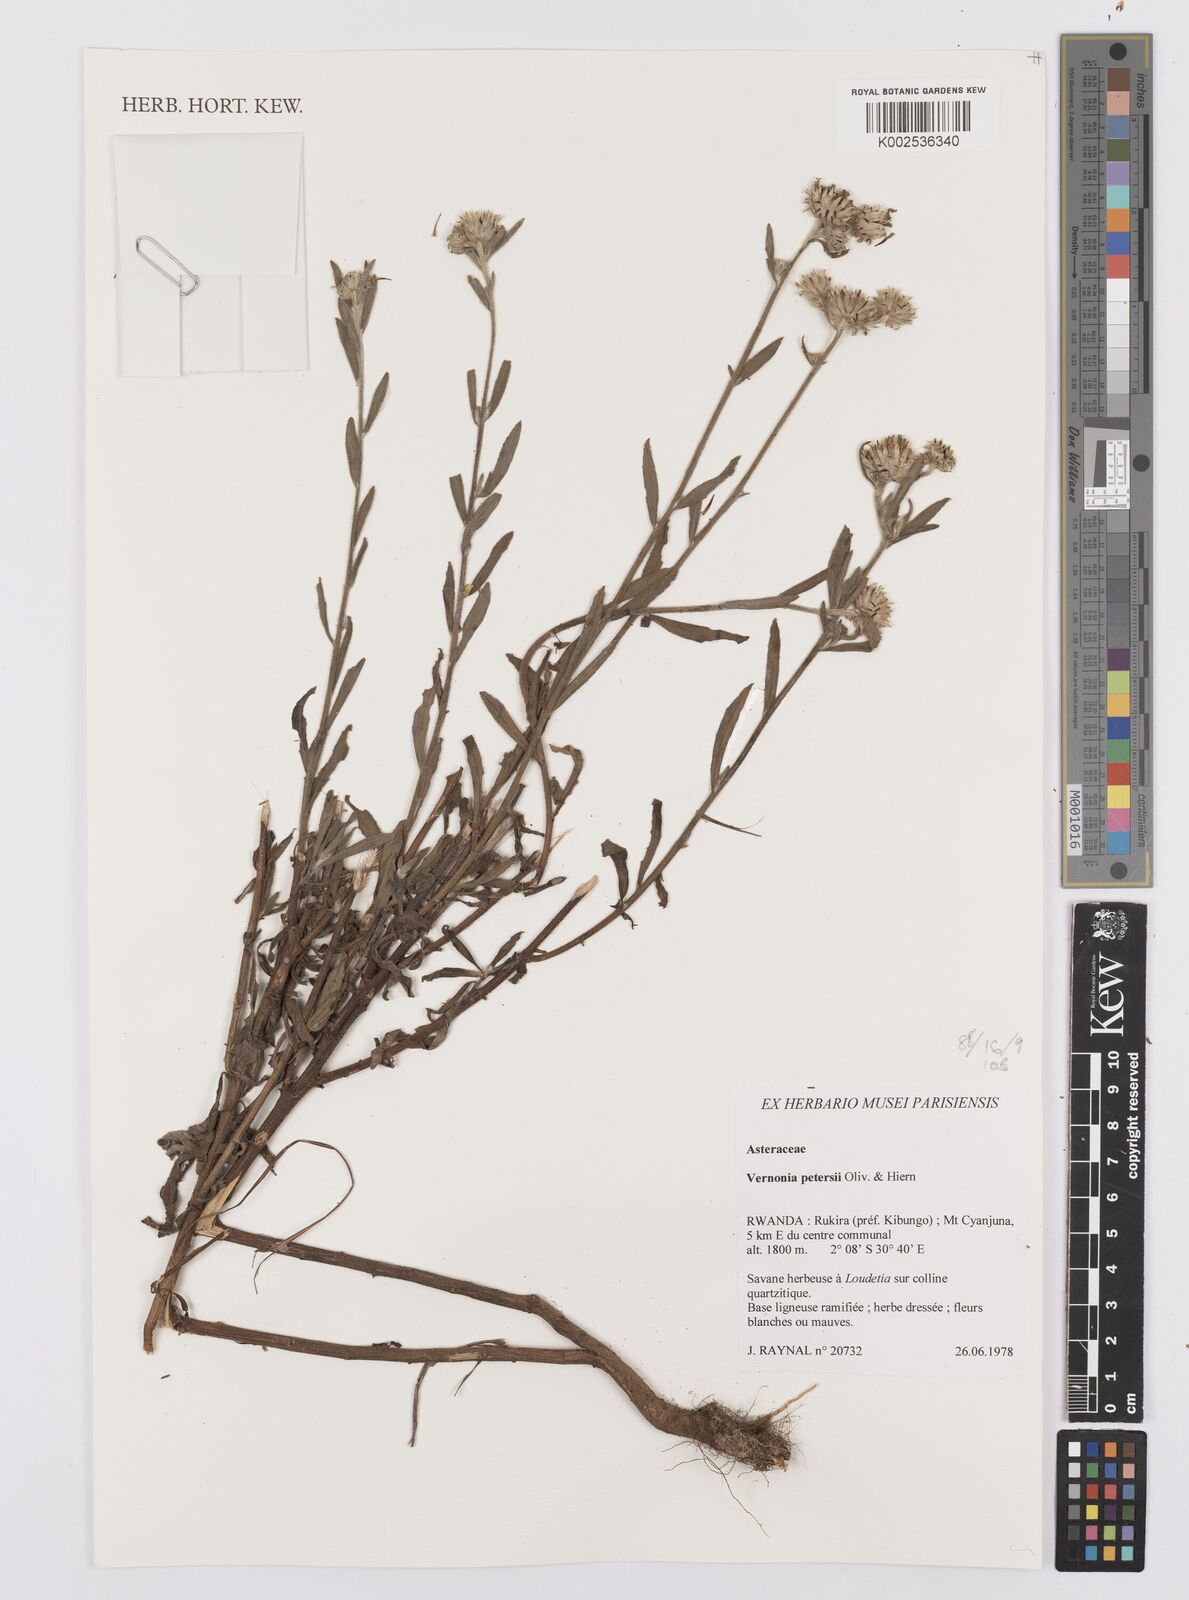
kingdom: Plantae
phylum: Tracheophyta
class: Magnoliopsida
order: Asterales
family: Asteraceae
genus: Vernoniastrum
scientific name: Vernoniastrum latifolium
